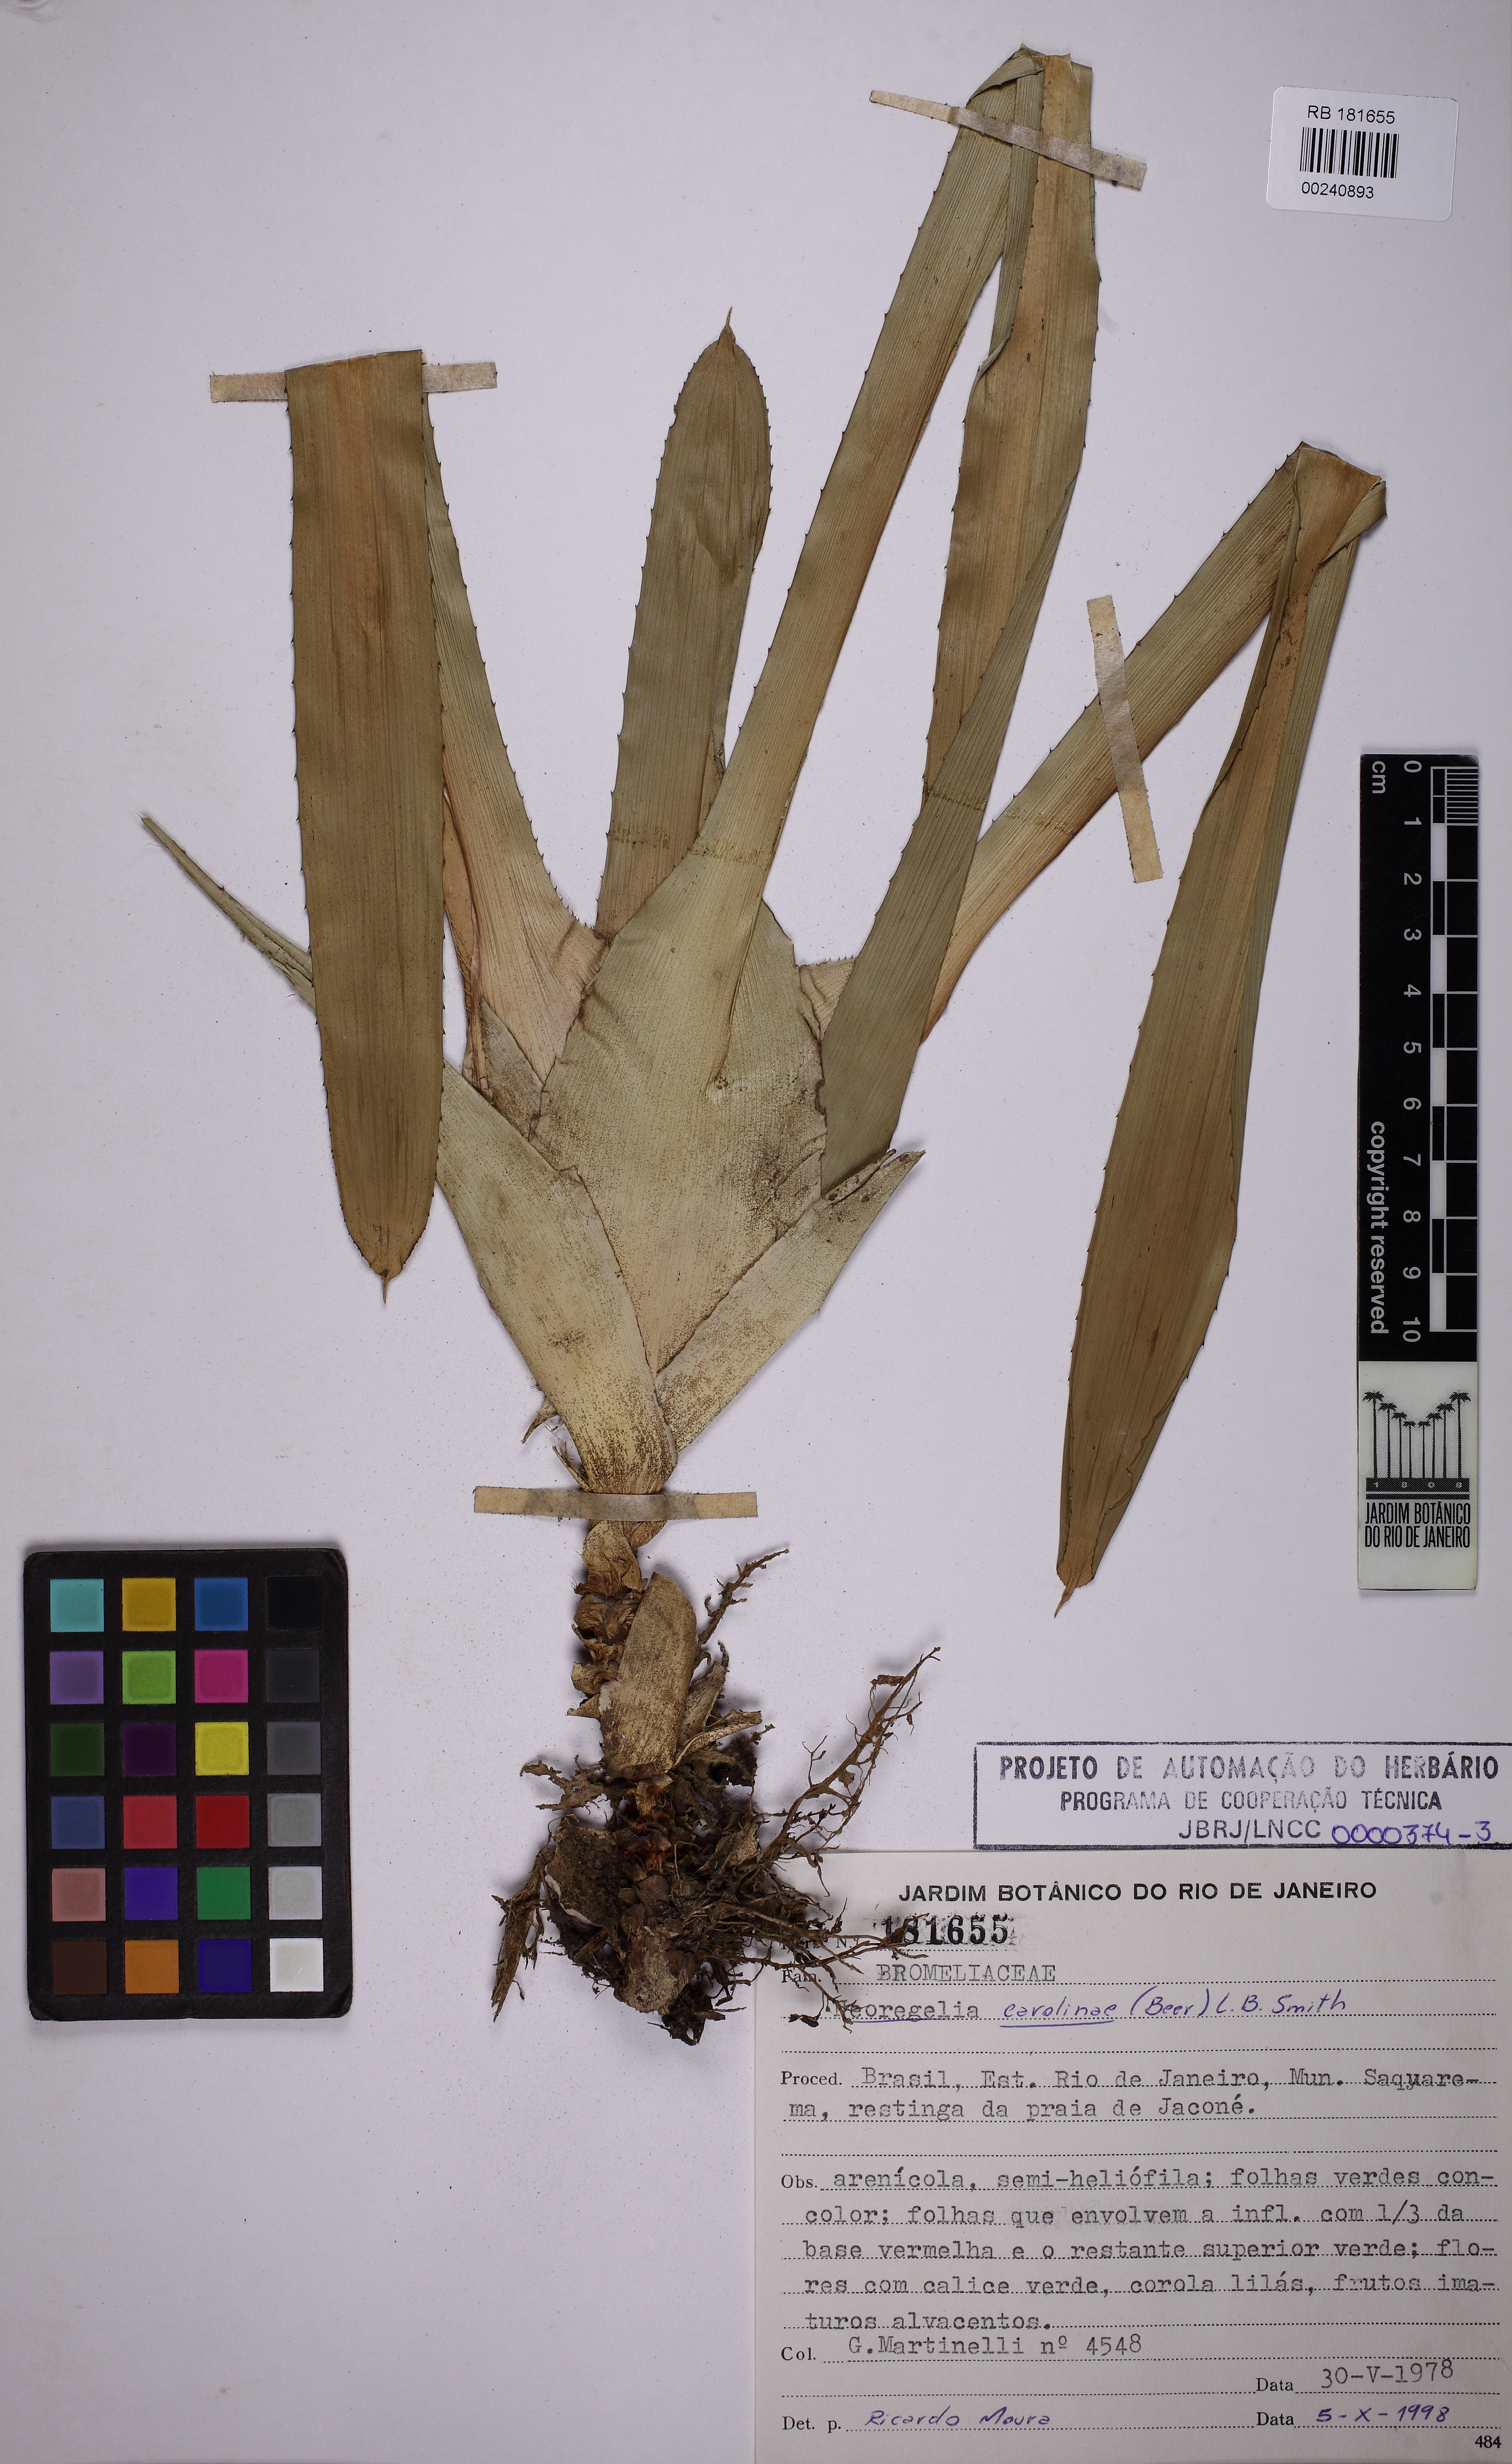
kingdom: Plantae
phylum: Tracheophyta
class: Liliopsida
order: Poales
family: Bromeliaceae
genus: Neoregelia
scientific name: Neoregelia carolinae
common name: Blushing bromeliad
